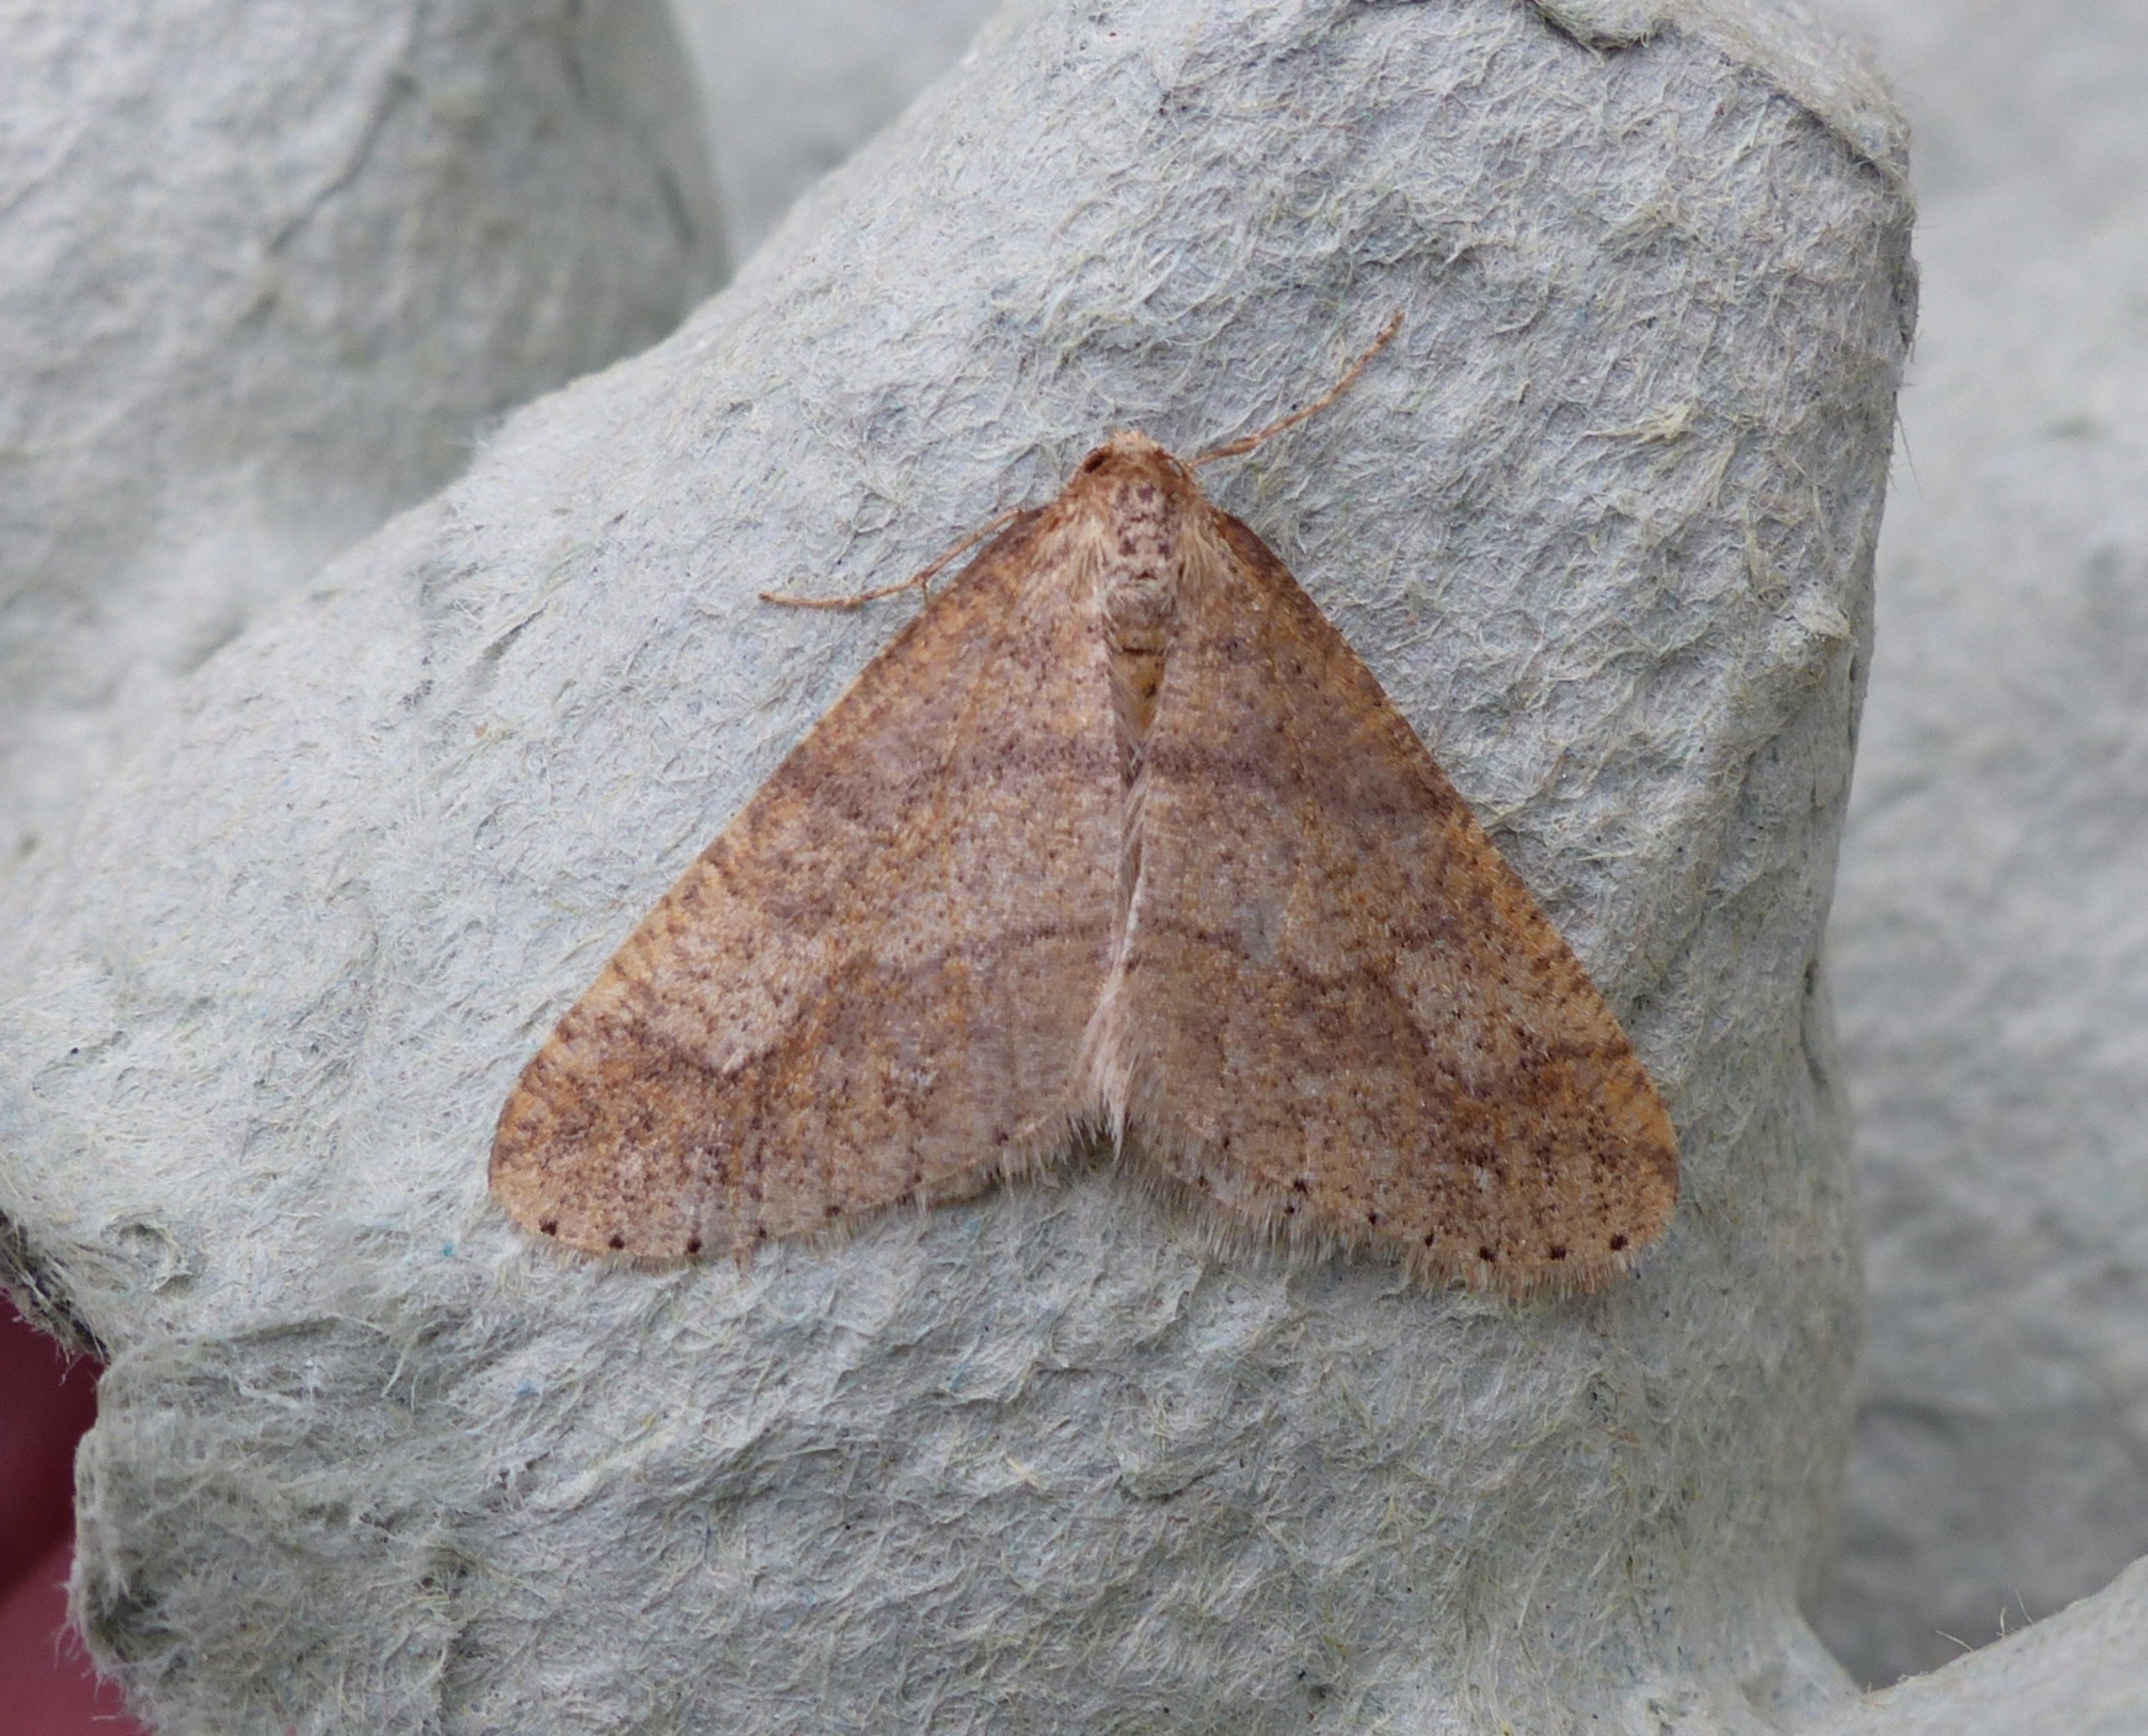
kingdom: Animalia
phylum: Arthropoda
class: Insecta
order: Lepidoptera
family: Geometridae
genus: Agriopis
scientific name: Agriopis marginaria
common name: Grågul frostmåler
